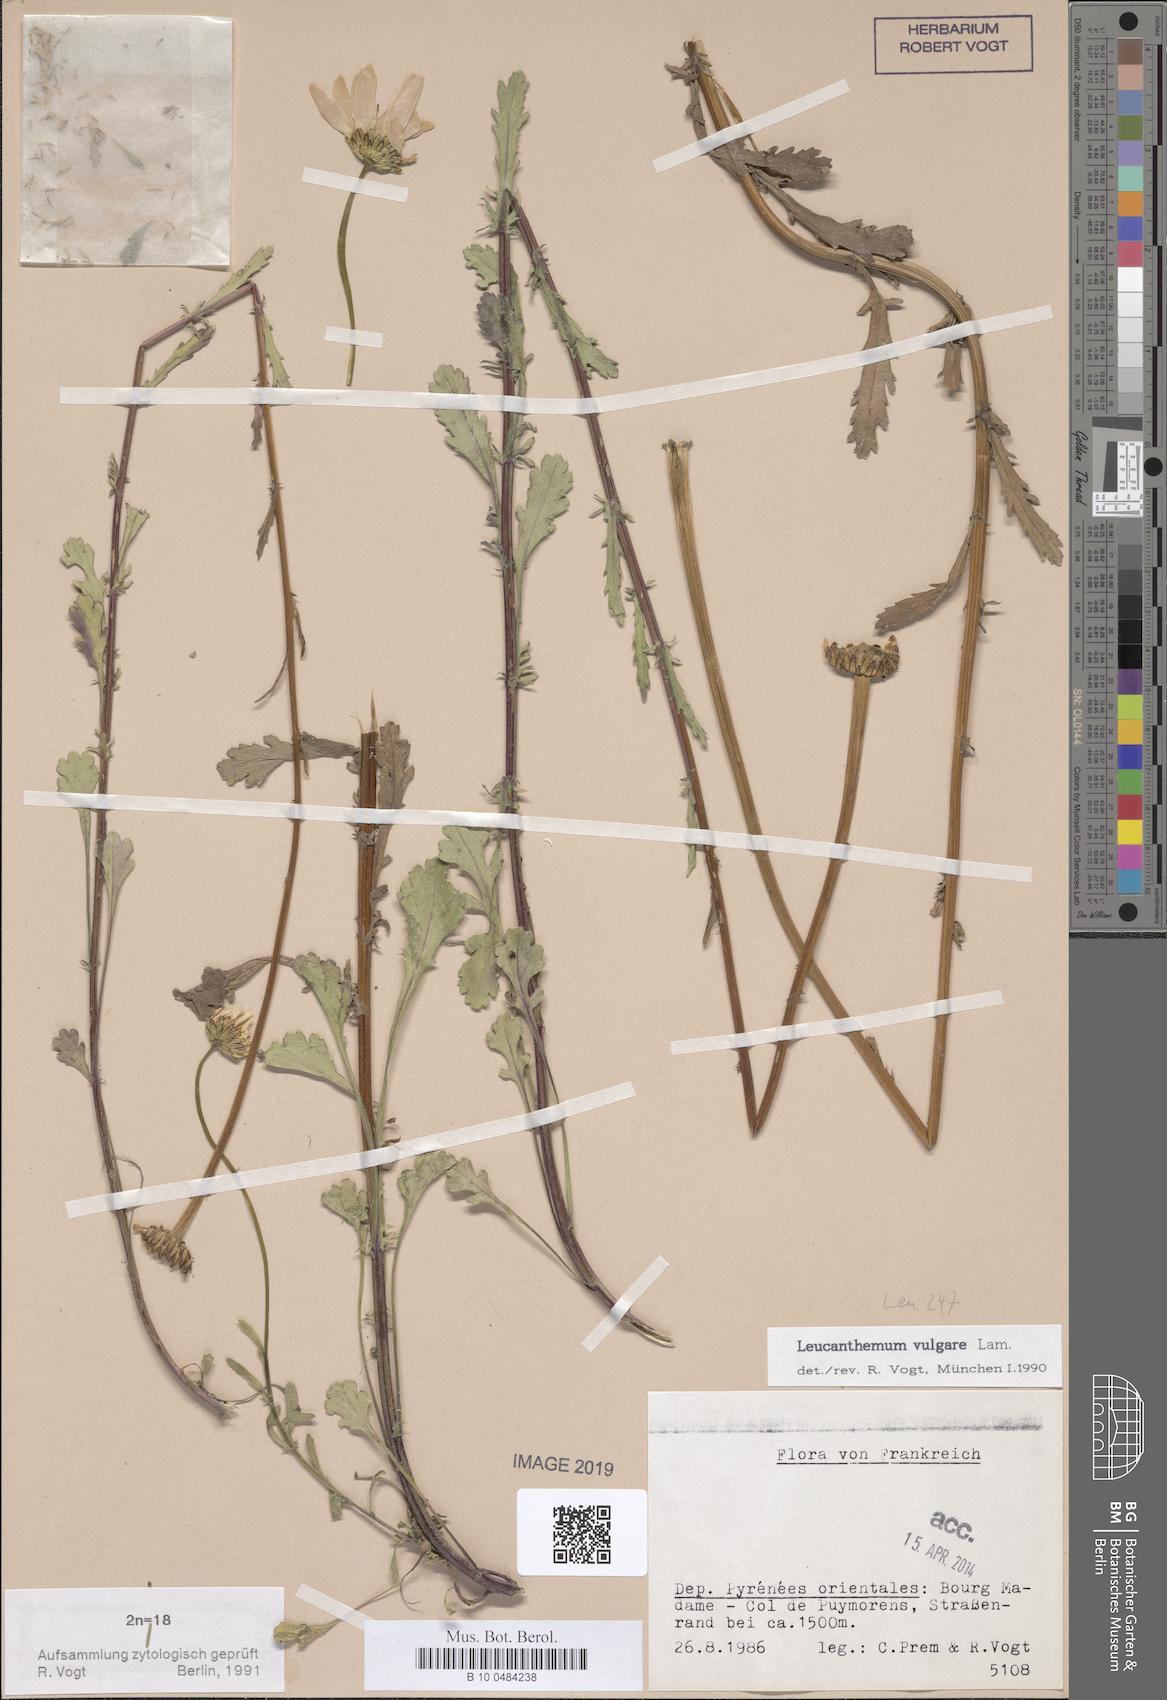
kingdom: Plantae
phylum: Tracheophyta
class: Magnoliopsida
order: Asterales
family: Asteraceae
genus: Leucanthemum
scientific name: Leucanthemum vulgare
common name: Oxeye daisy
